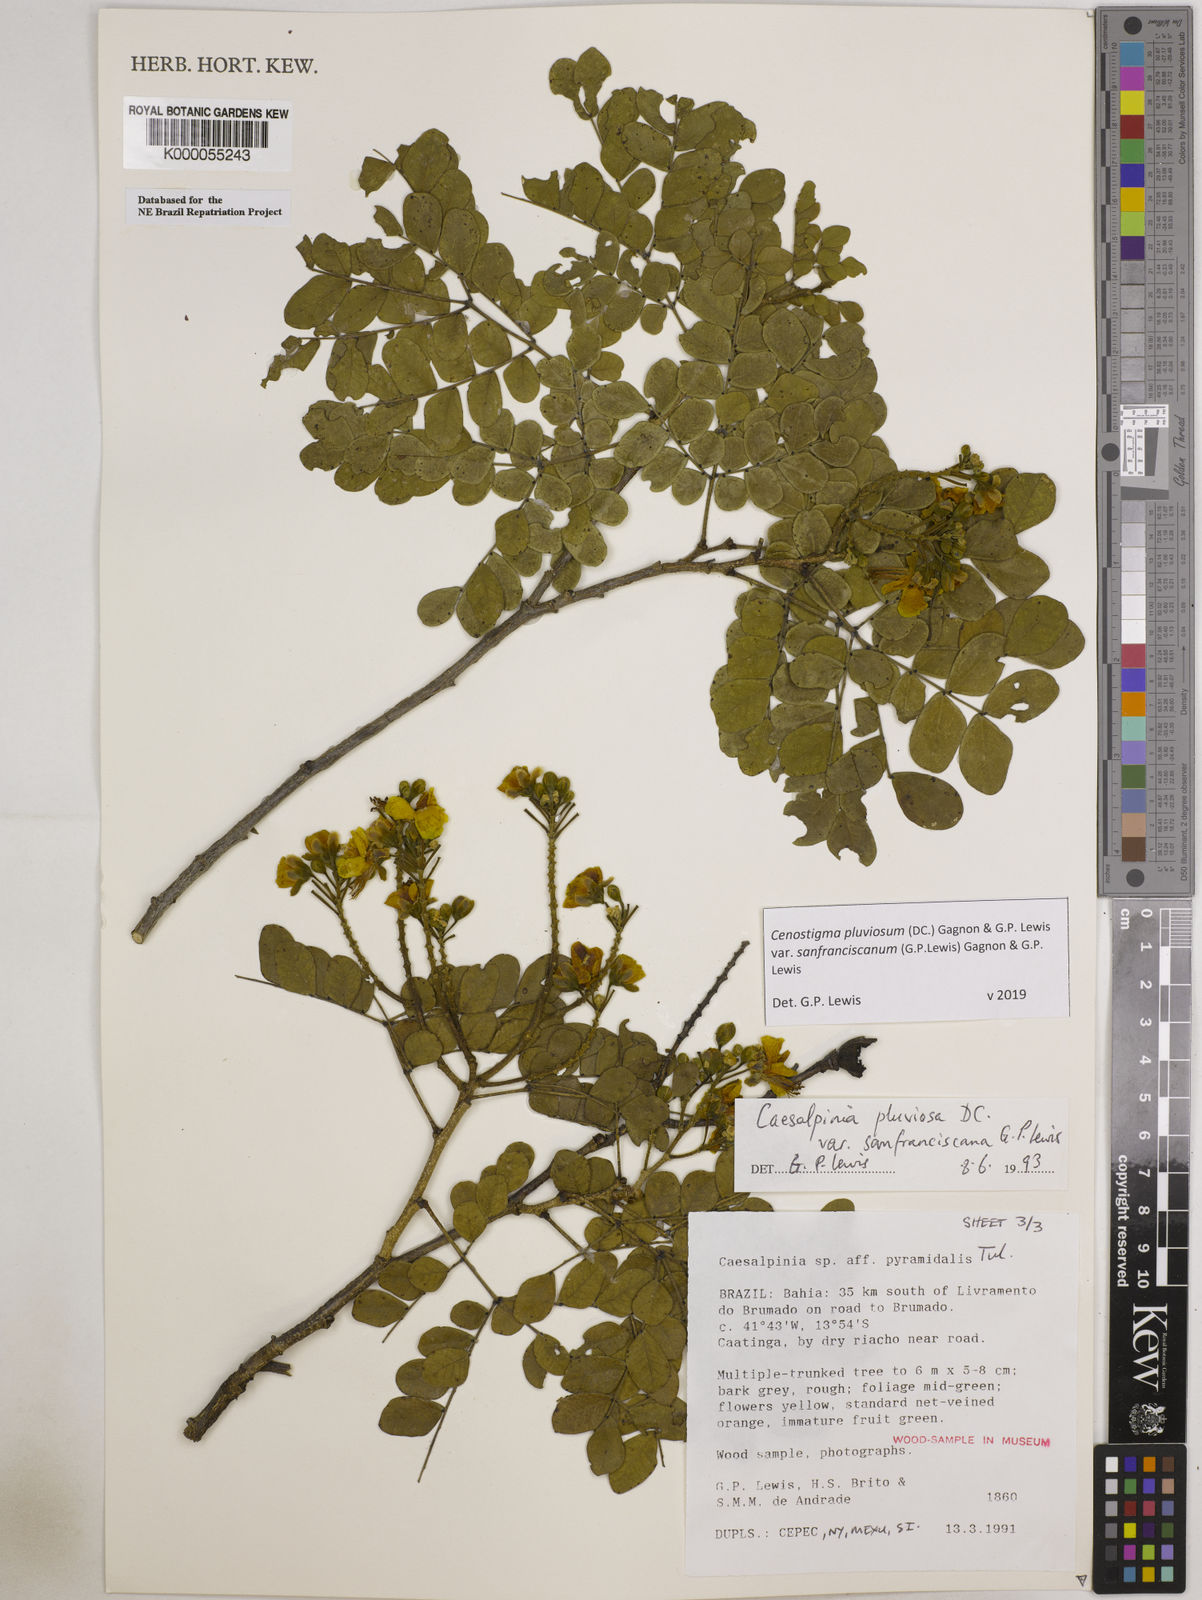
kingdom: Plantae
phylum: Tracheophyta
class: Magnoliopsida
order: Fabales
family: Fabaceae
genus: Cenostigma
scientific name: Cenostigma pluviosum
